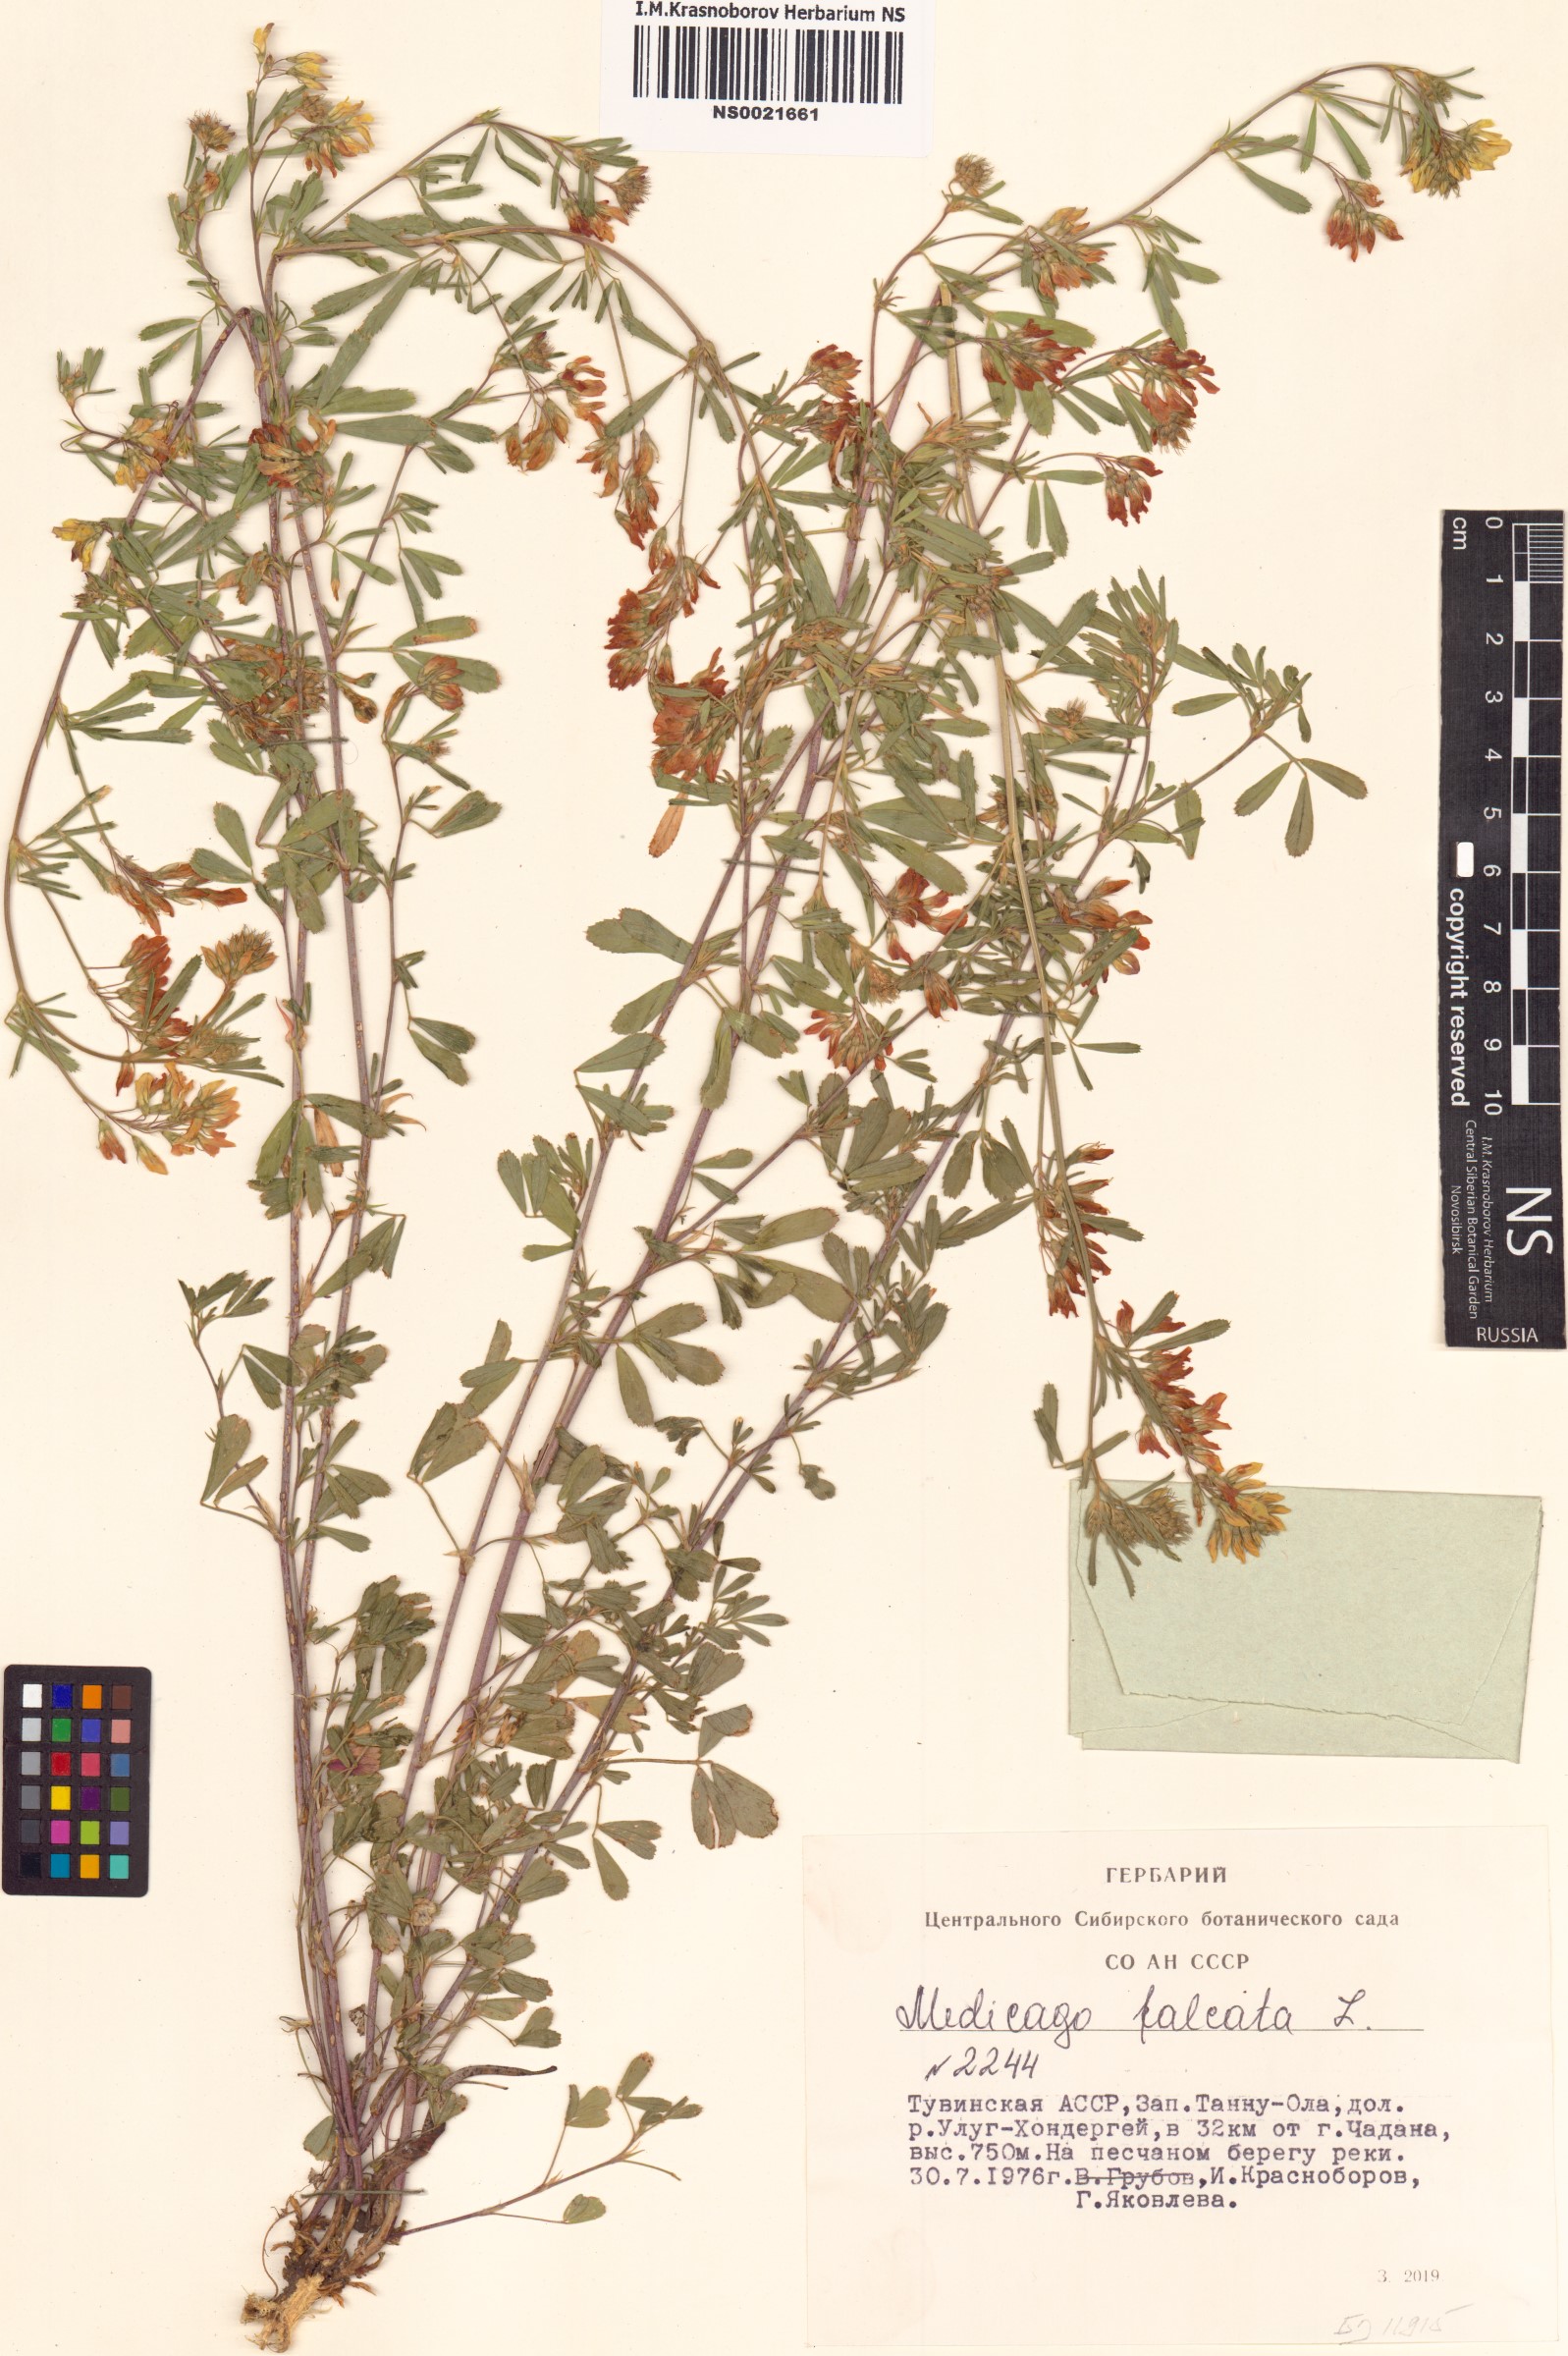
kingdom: Plantae
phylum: Tracheophyta
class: Magnoliopsida
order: Fabales
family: Fabaceae
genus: Medicago
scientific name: Medicago falcata
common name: Sickle medick
